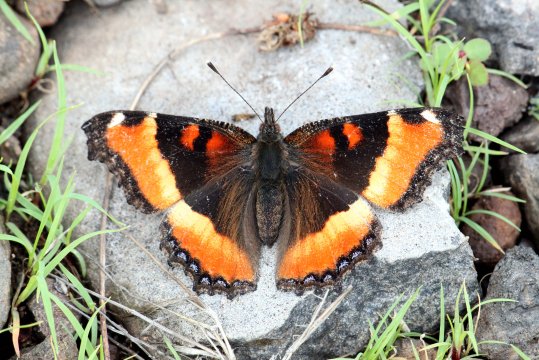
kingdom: Animalia
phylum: Arthropoda
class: Insecta
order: Lepidoptera
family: Nymphalidae
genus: Aglais
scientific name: Aglais milberti
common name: Milbert's Tortoiseshell
